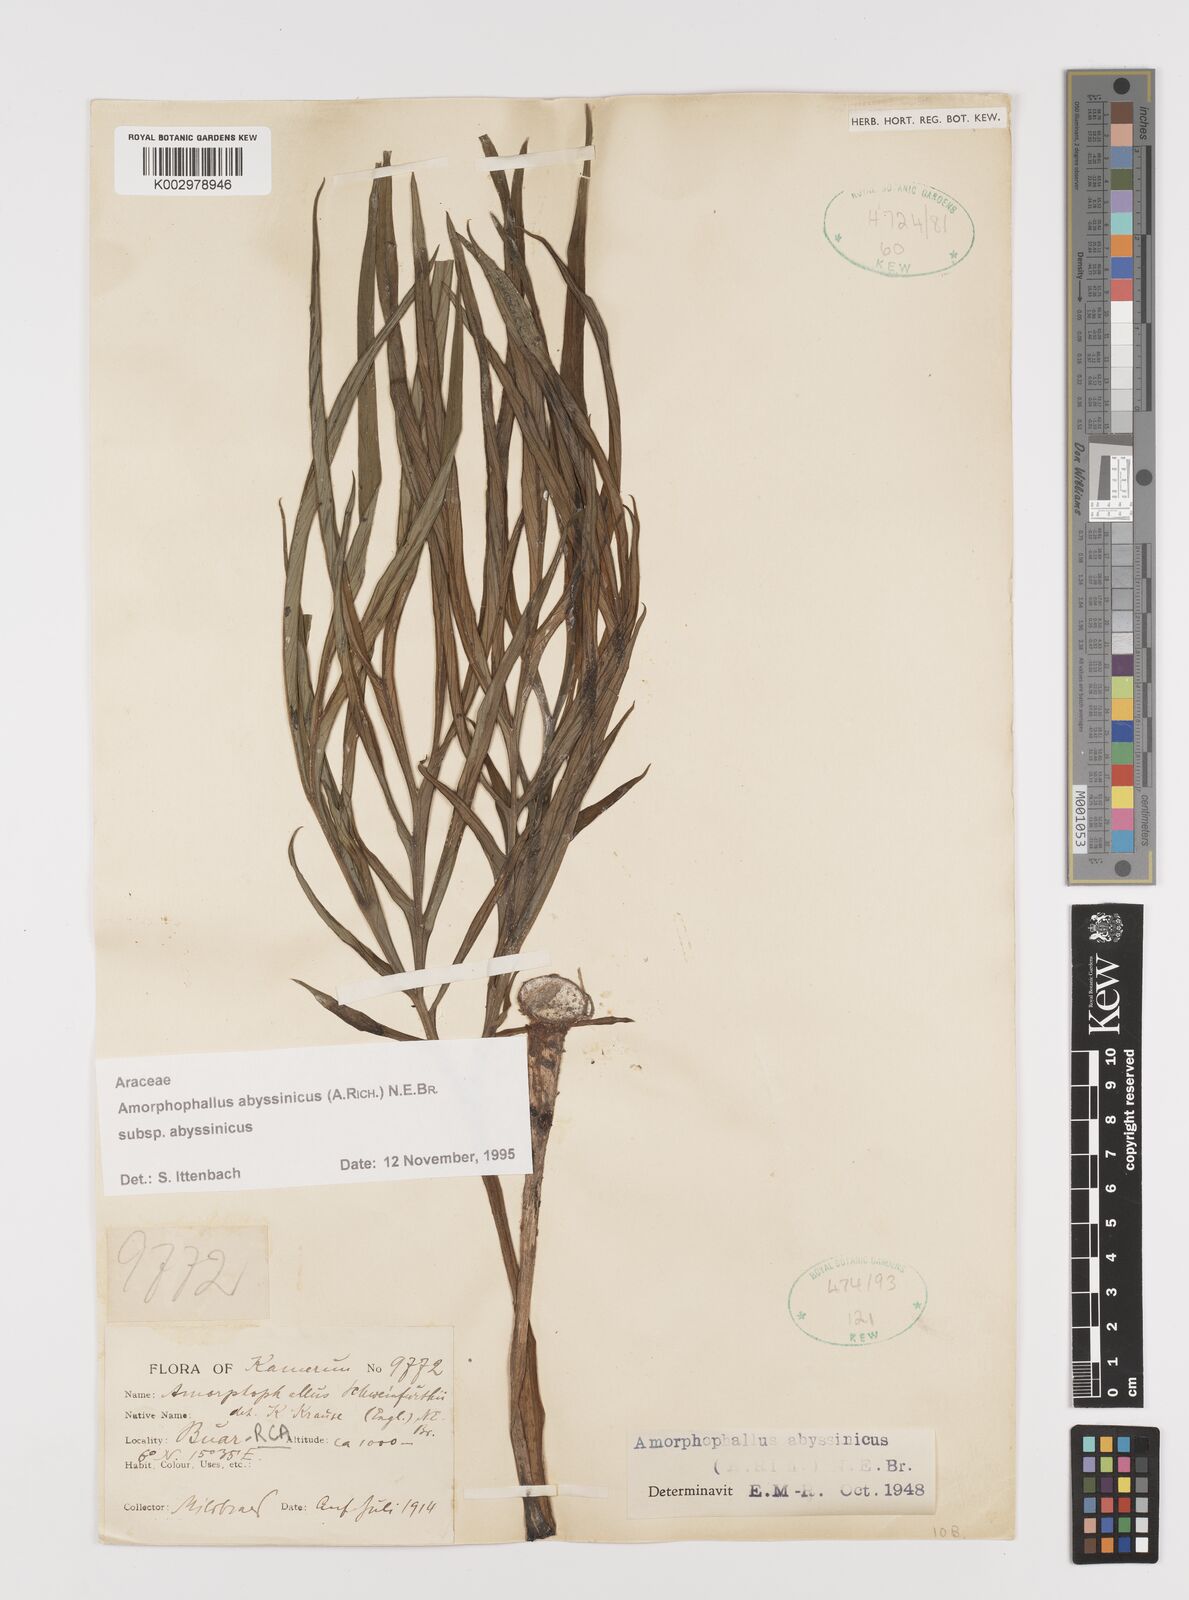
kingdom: Plantae
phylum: Tracheophyta
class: Liliopsida
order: Alismatales
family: Araceae
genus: Amorphophallus
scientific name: Amorphophallus abyssinicus
